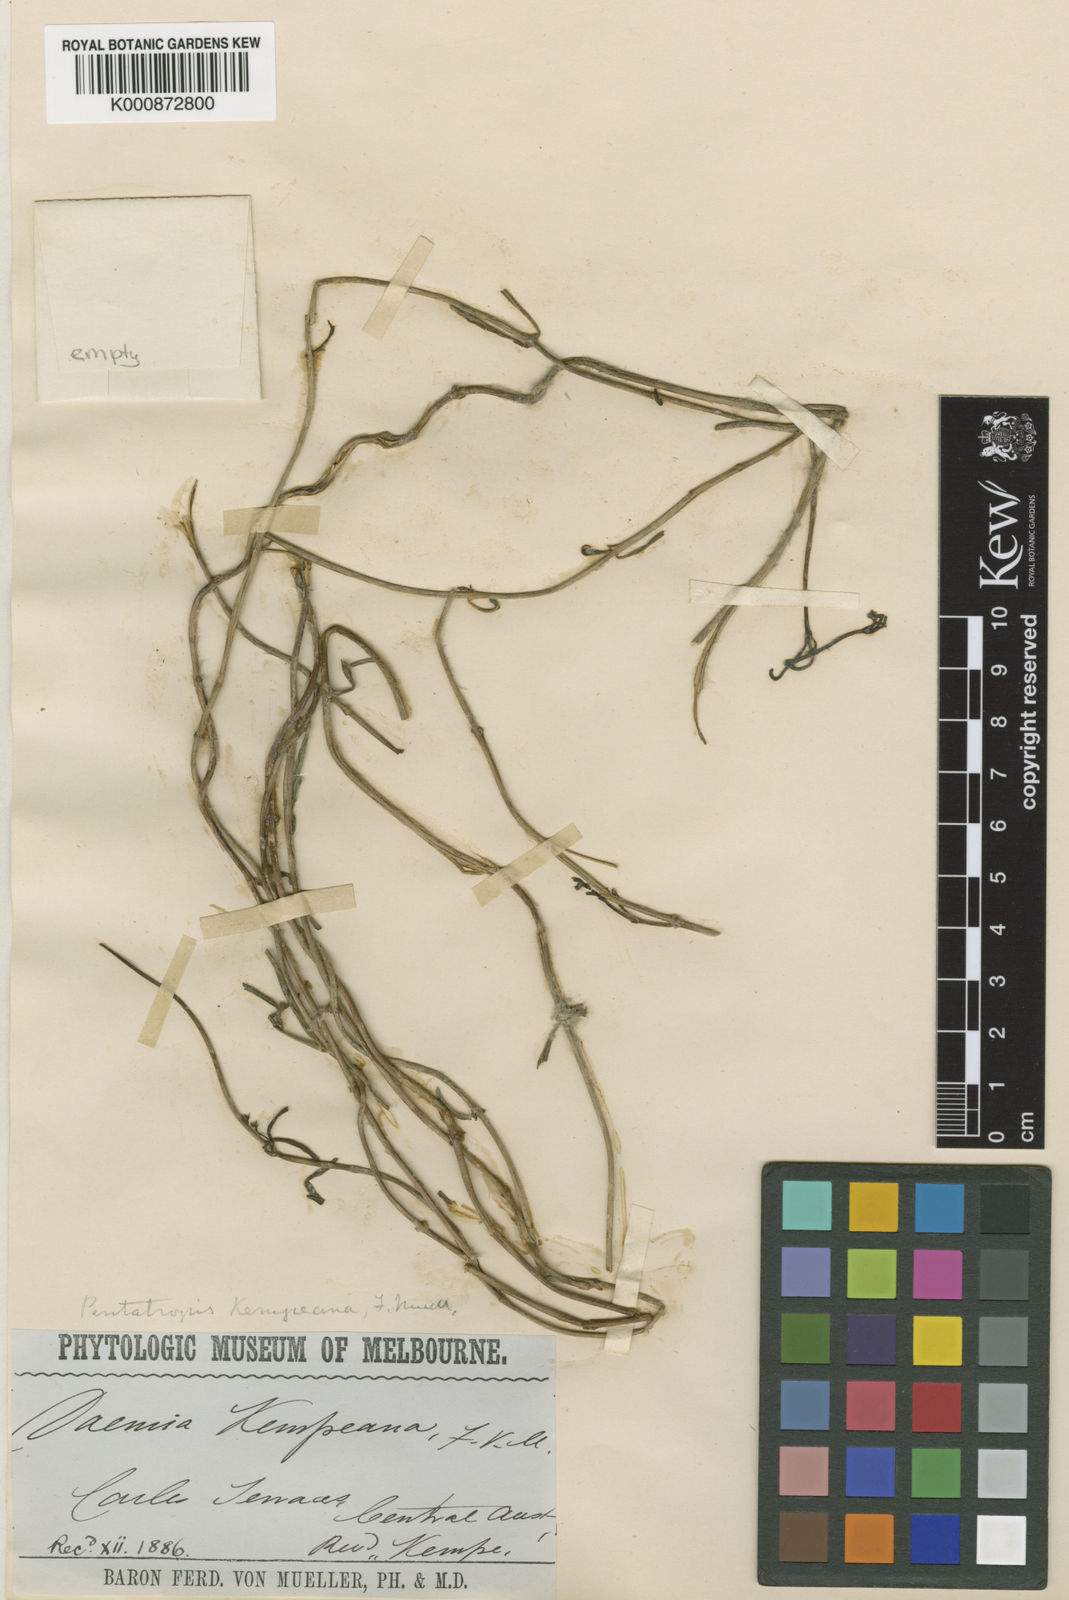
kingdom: Plantae
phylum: Tracheophyta
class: Magnoliopsida
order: Gentianales
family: Apocynaceae
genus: Vincetoxicum
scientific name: Vincetoxicum lineare
